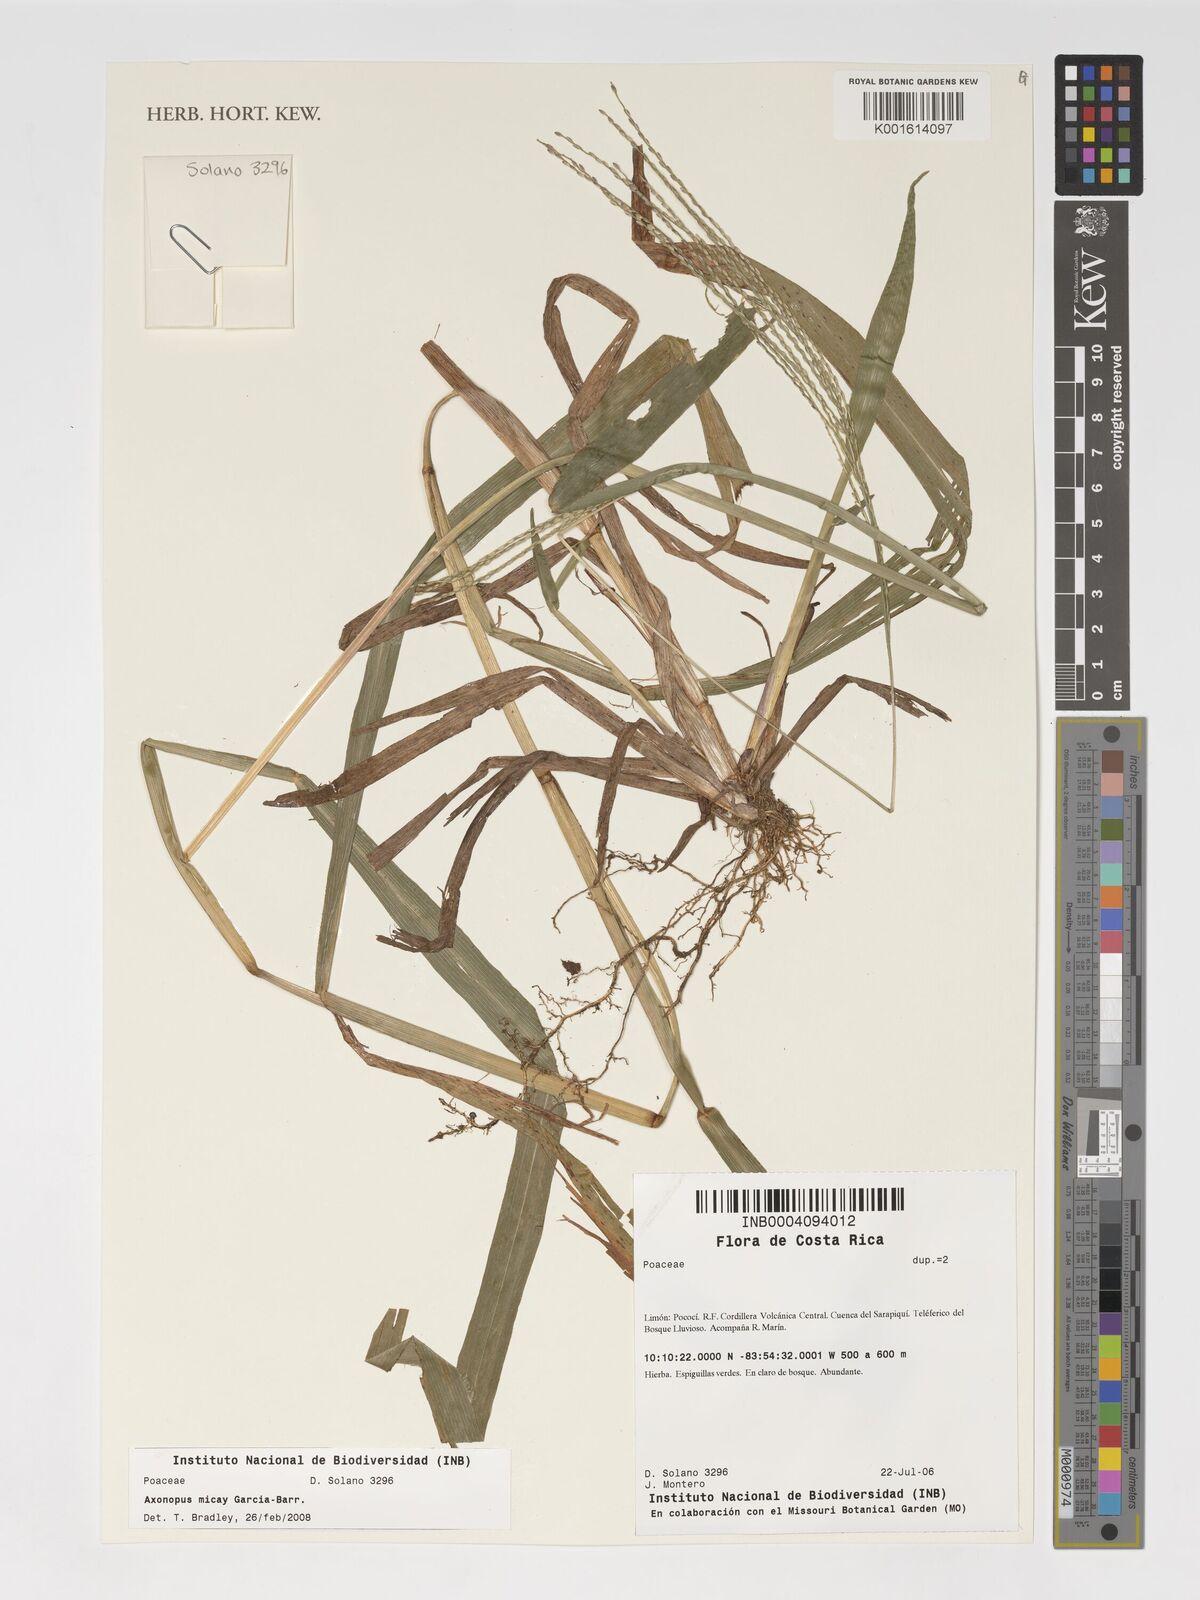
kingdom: Plantae
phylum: Tracheophyta
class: Liliopsida
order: Poales
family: Poaceae
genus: Axonopus
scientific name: Axonopus scoparius
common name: Imperial grass
